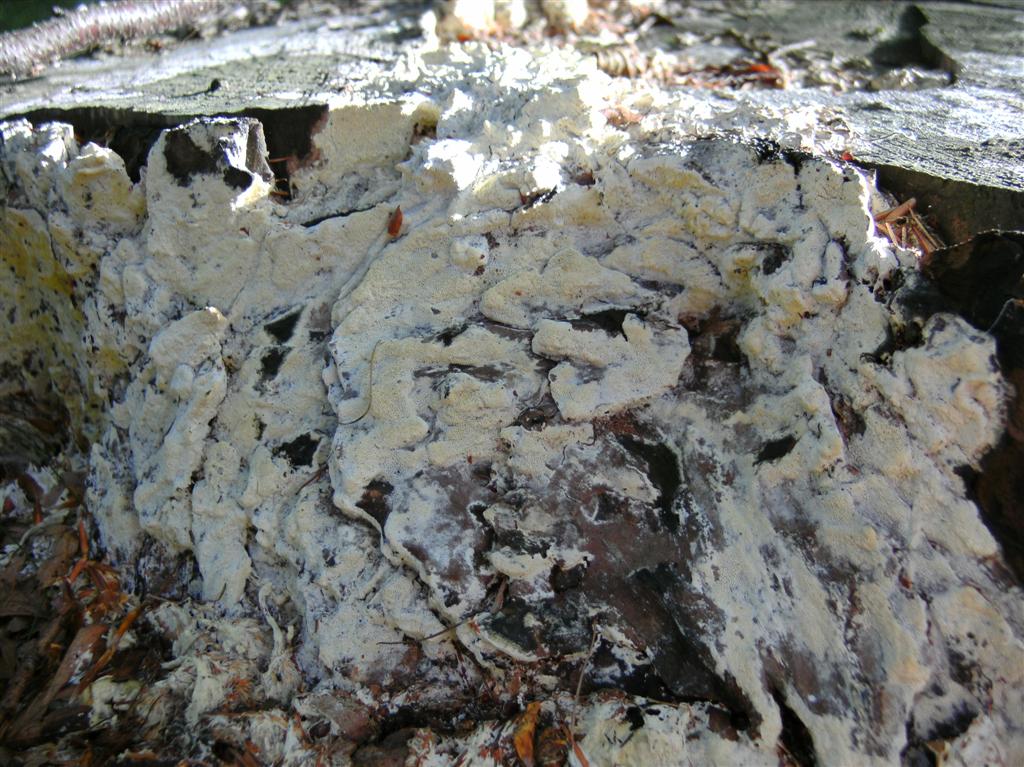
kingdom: Fungi
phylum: Basidiomycota
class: Agaricomycetes
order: Polyporales
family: Fomitopsidaceae
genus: Daedalea
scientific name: Daedalea xantha
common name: gul sejporesvamp
